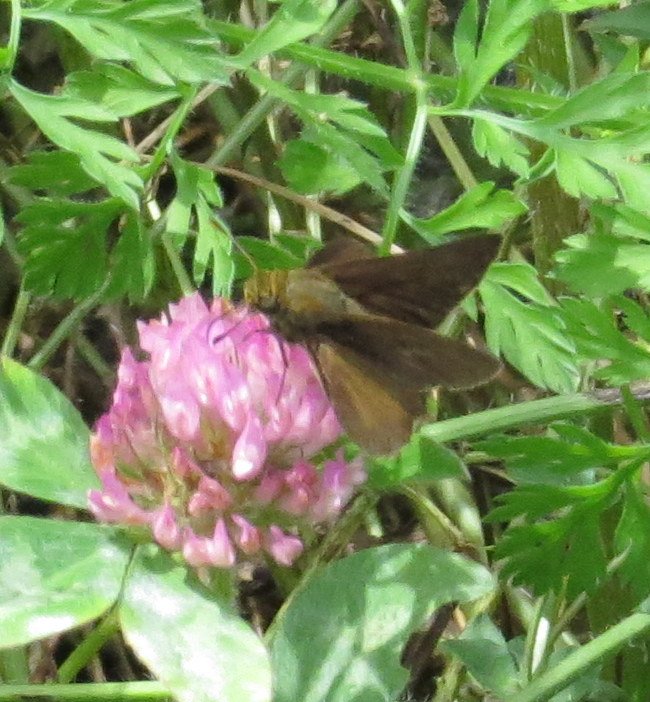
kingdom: Animalia
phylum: Arthropoda
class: Insecta
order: Lepidoptera
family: Hesperiidae
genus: Euphyes
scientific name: Euphyes vestris
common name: Dun Skipper
